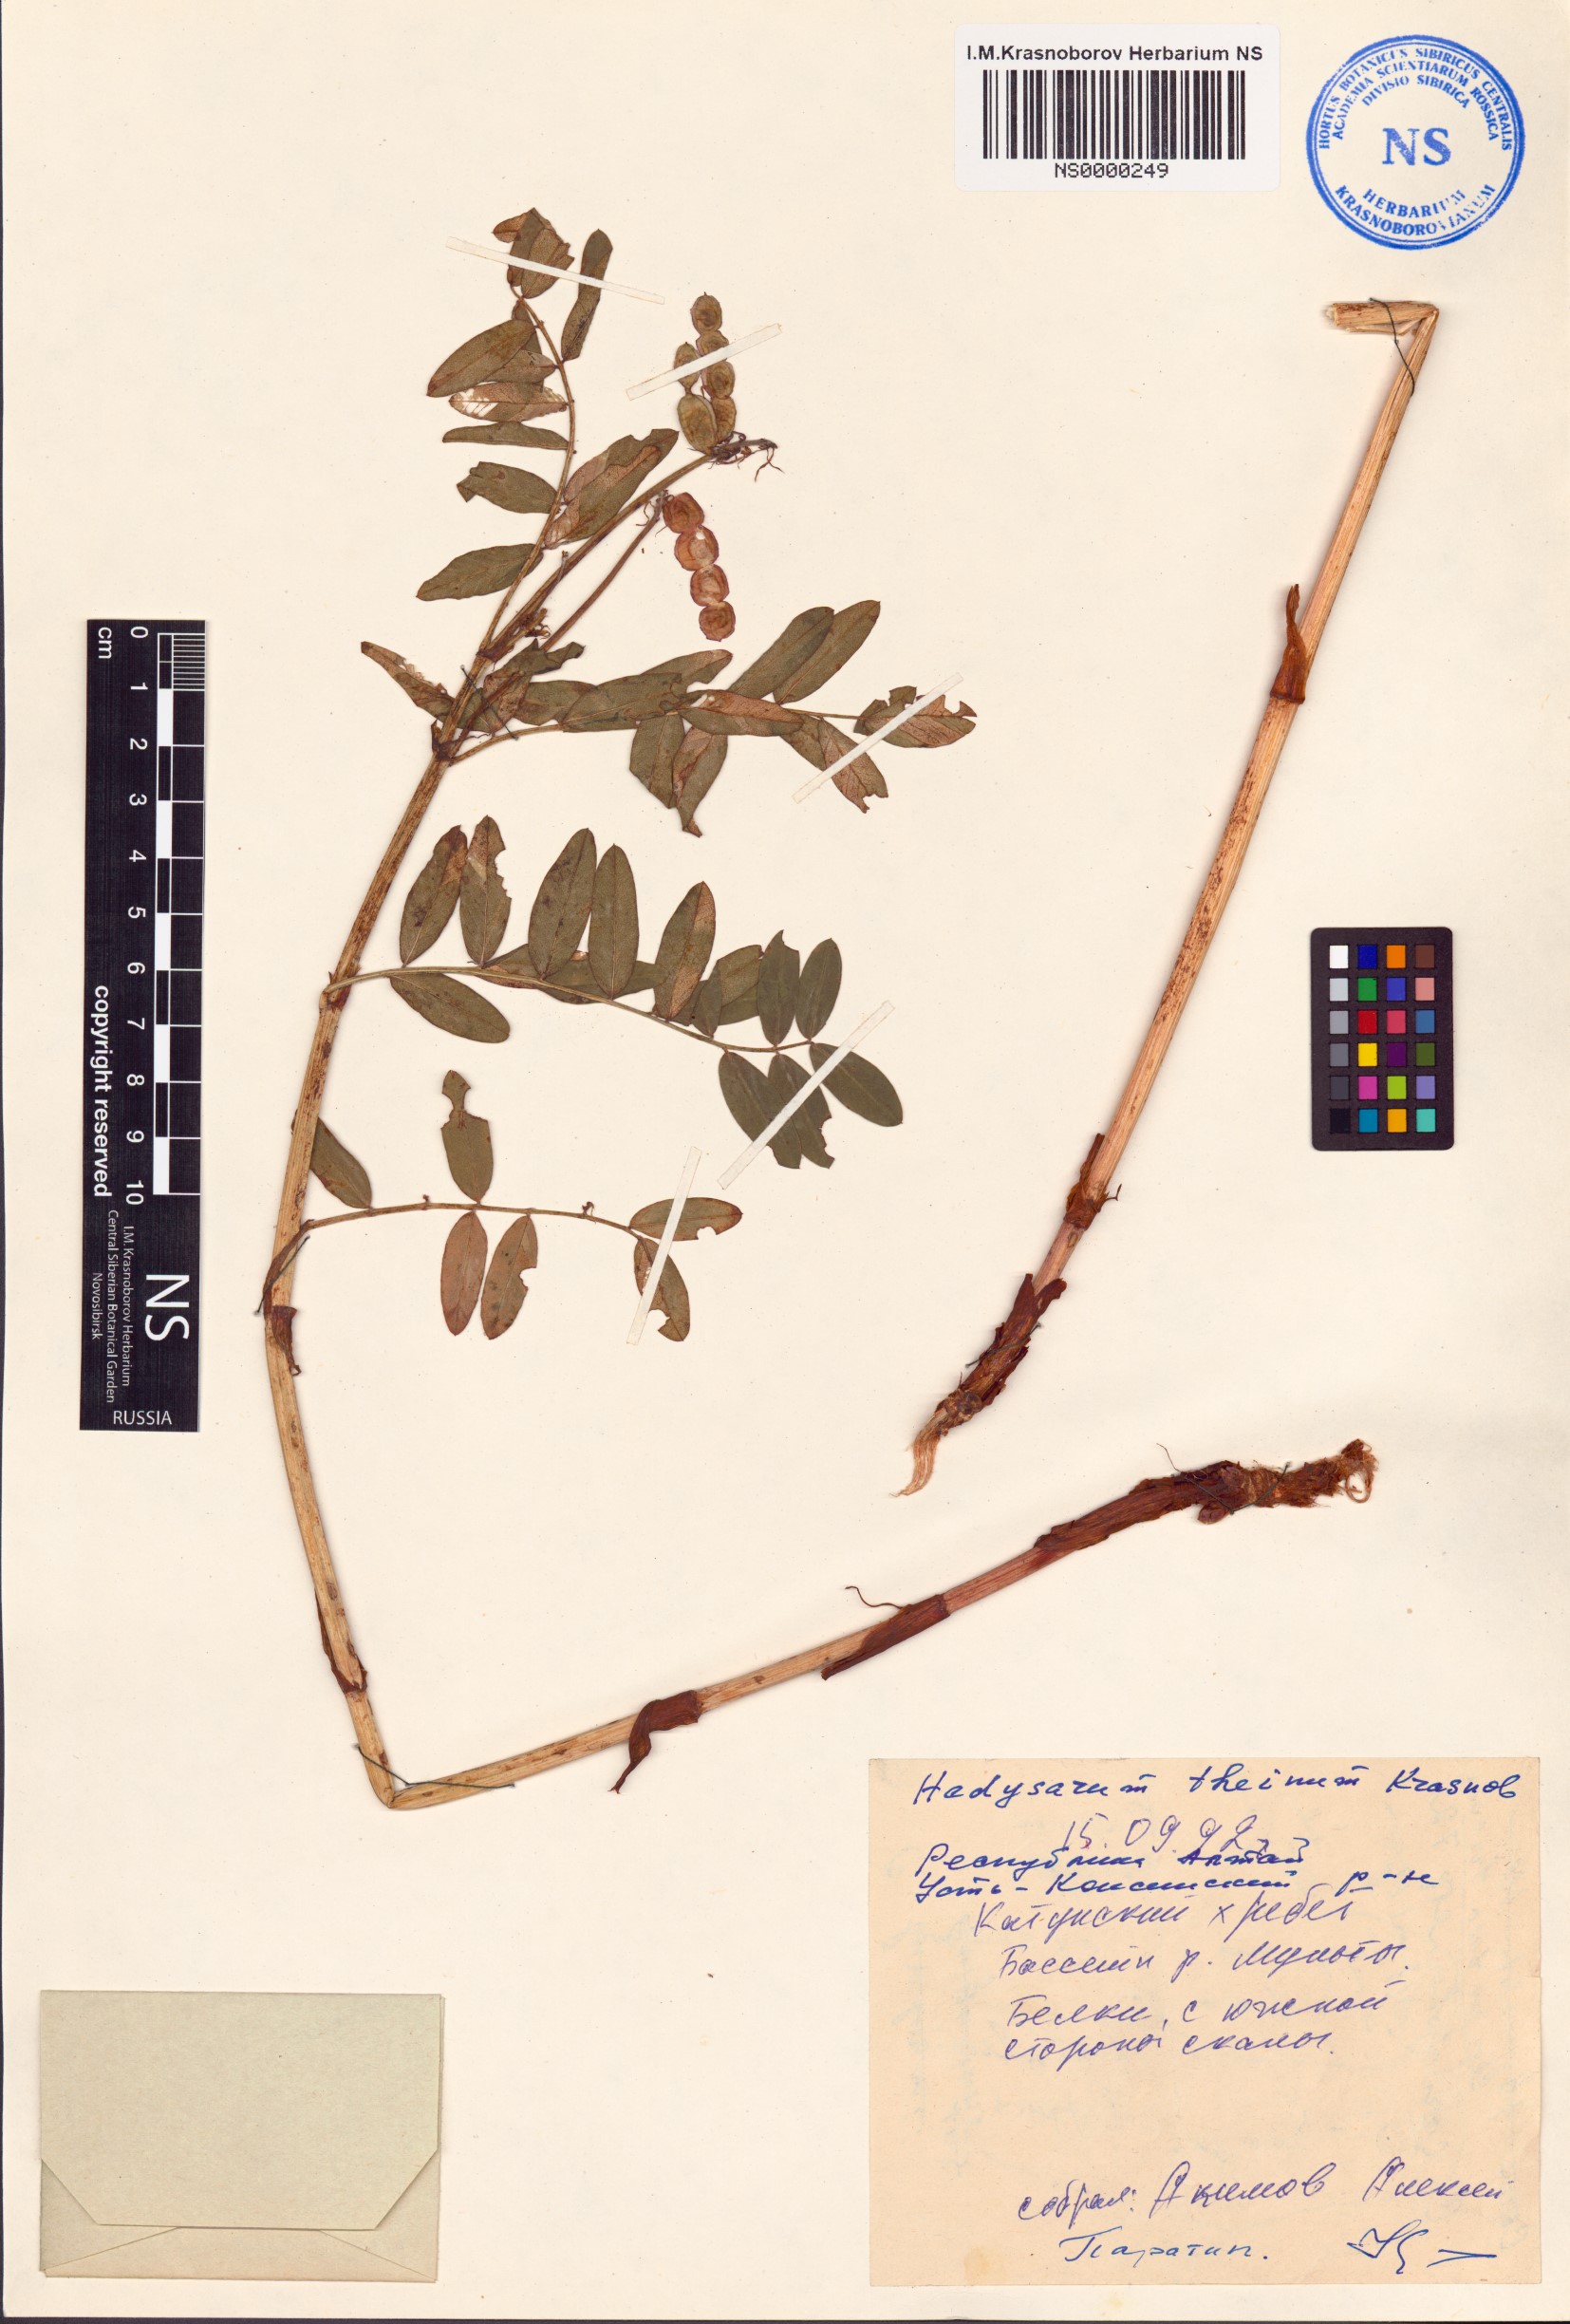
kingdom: Plantae
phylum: Tracheophyta
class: Magnoliopsida
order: Fabales
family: Fabaceae
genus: Hedysarum
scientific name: Hedysarum theinum
